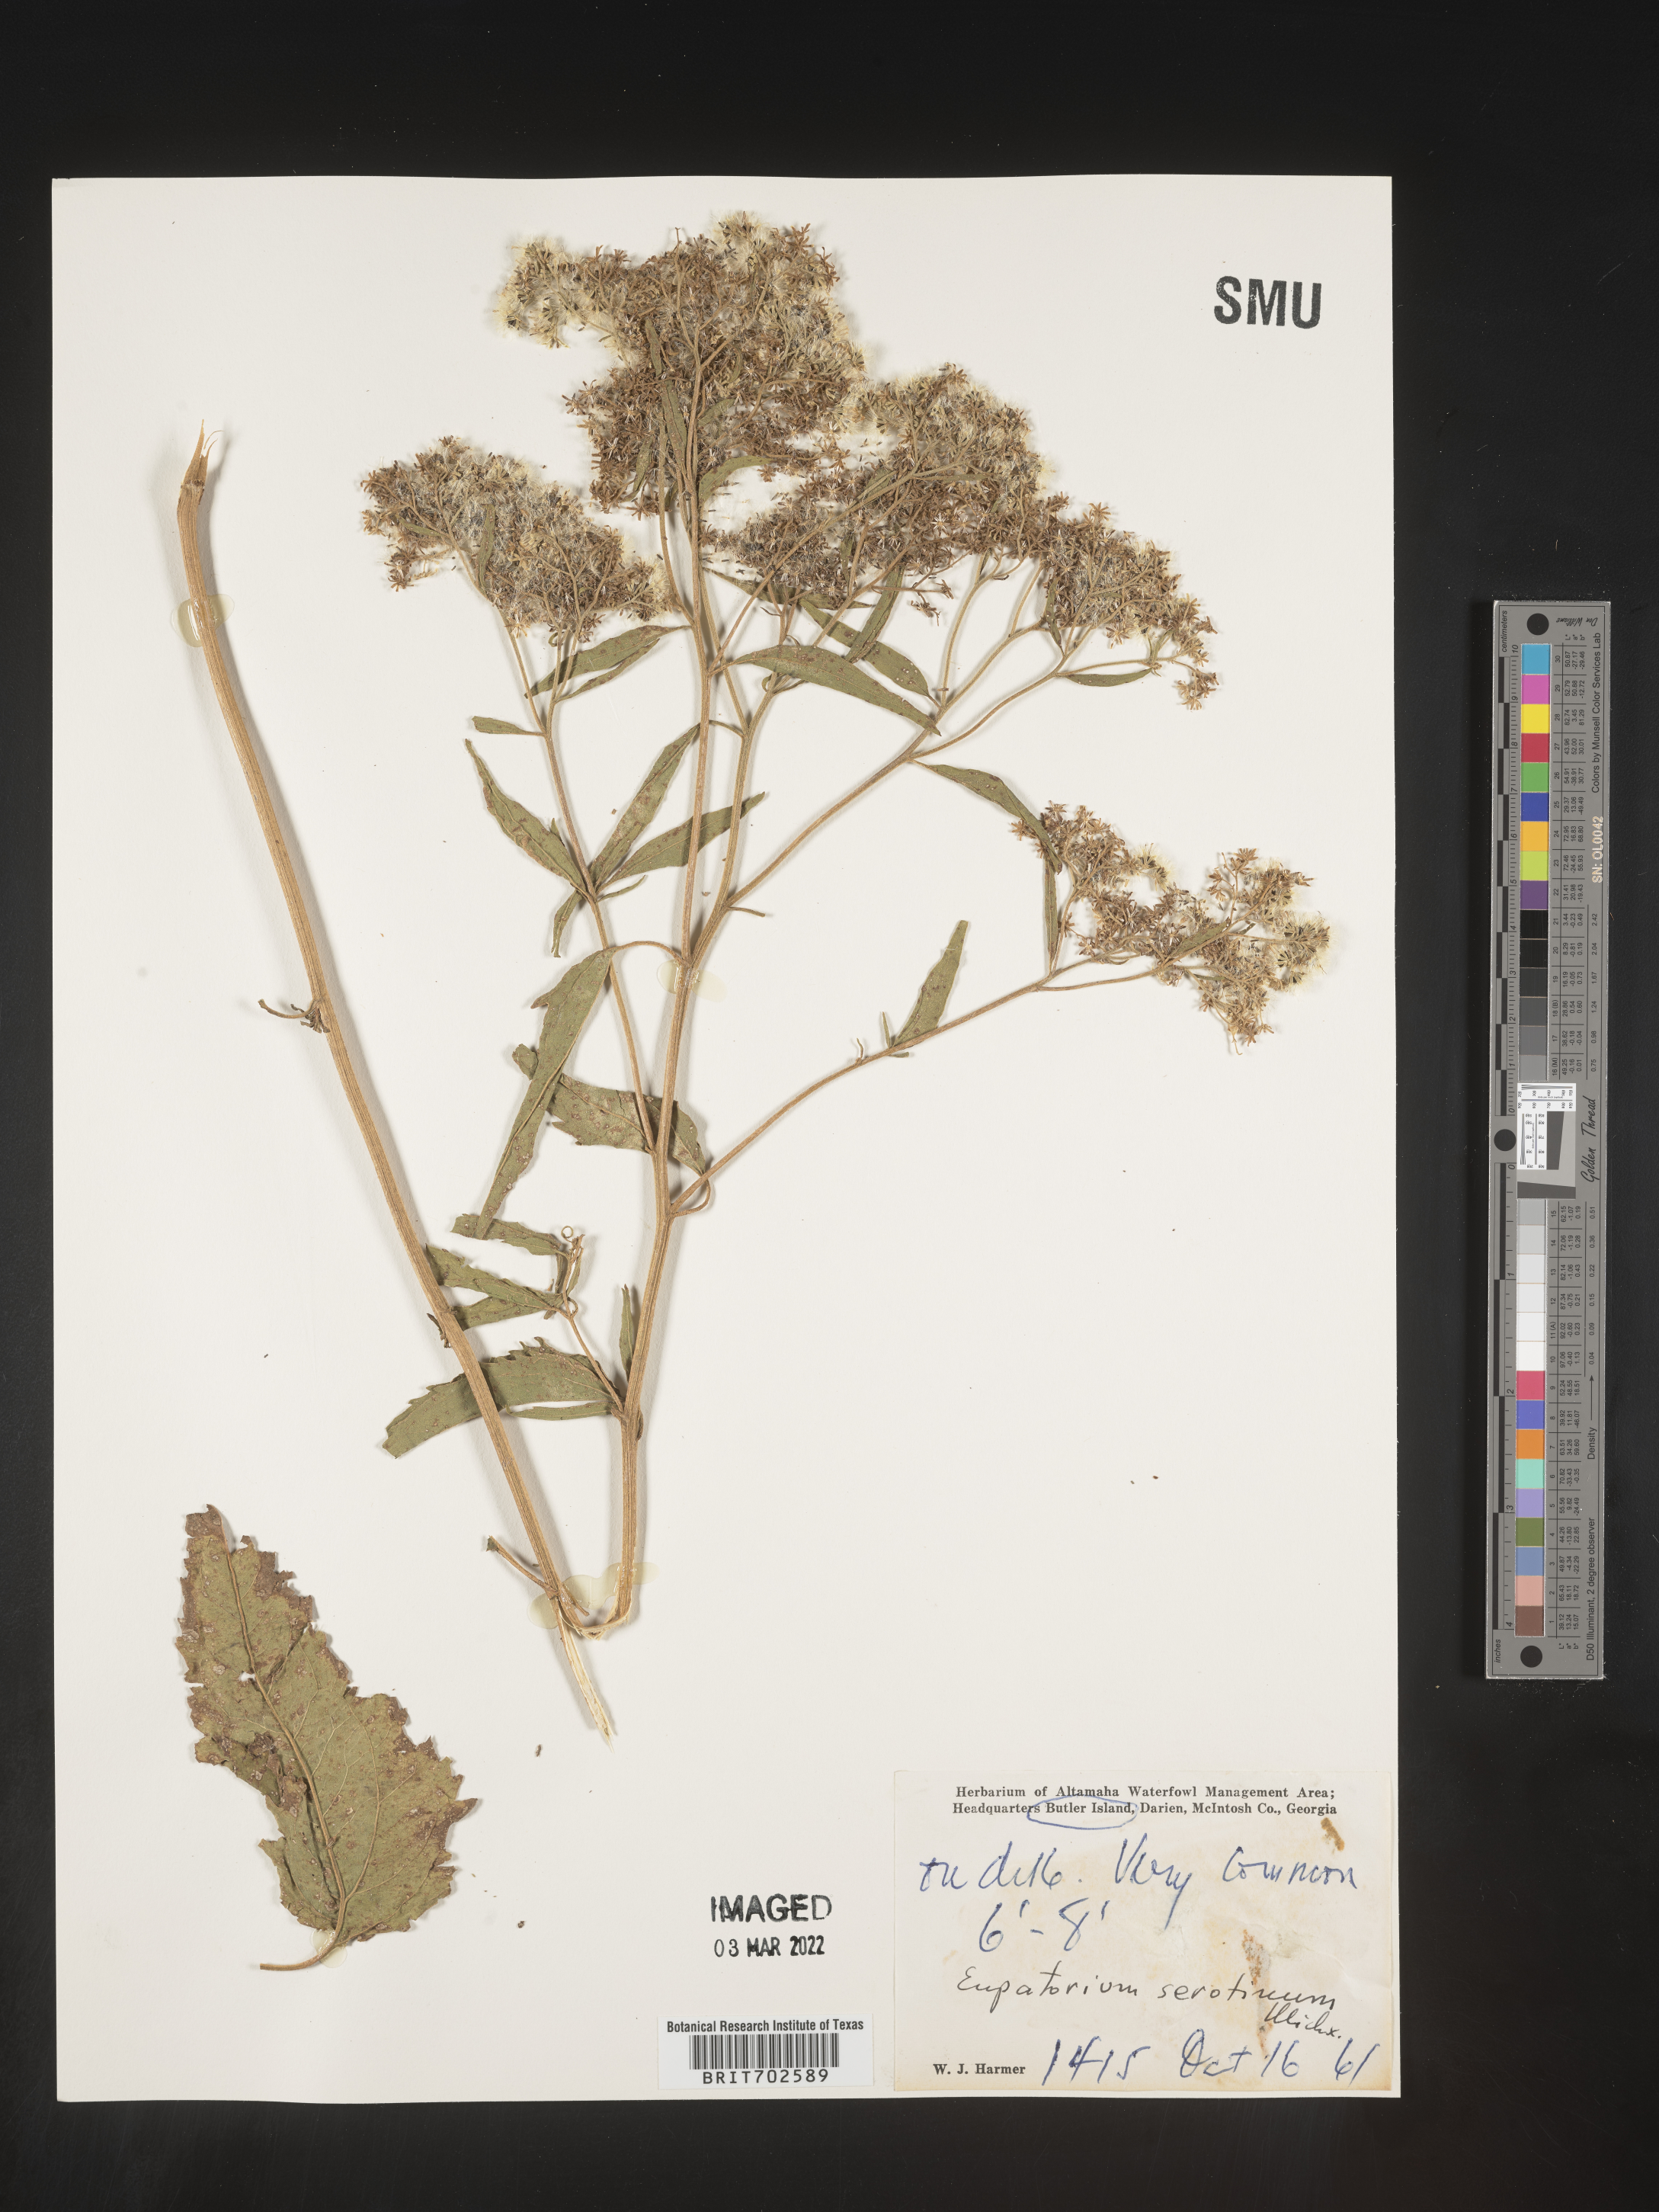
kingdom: Plantae
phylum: Tracheophyta
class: Magnoliopsida
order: Asterales
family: Asteraceae
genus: Eupatorium
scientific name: Eupatorium serotinum
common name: Late boneset
